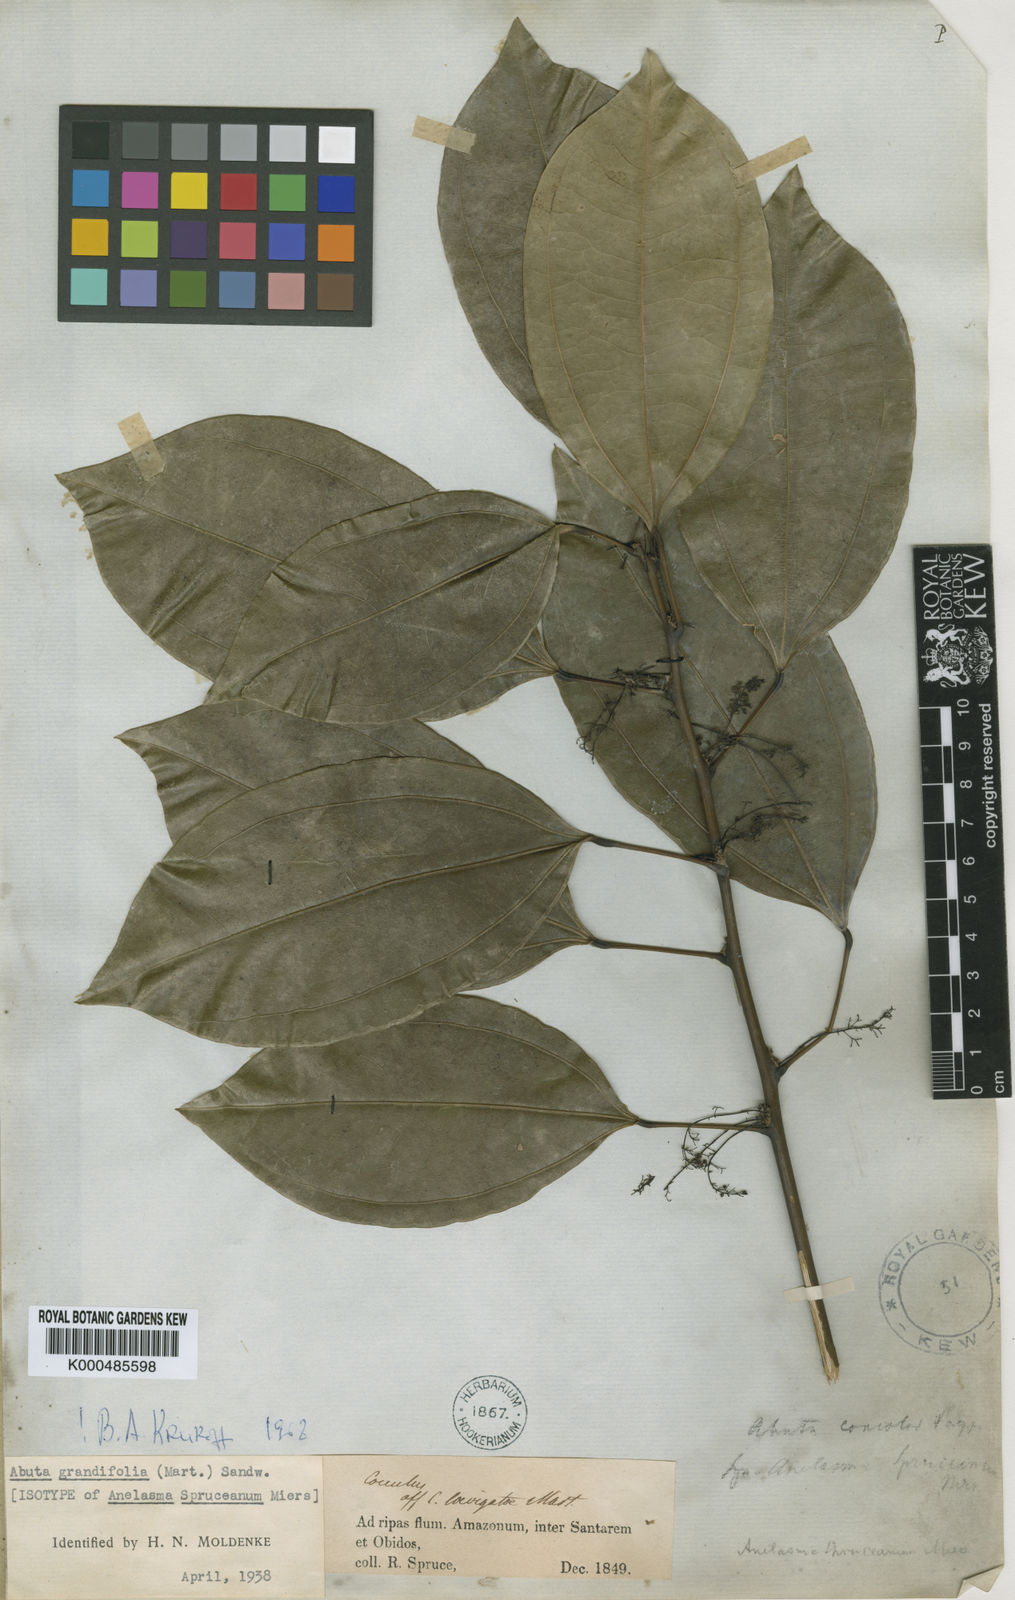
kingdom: Plantae
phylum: Tracheophyta
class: Magnoliopsida
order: Ranunculales
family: Menispermaceae
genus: Abuta
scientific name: Abuta grandifolia
